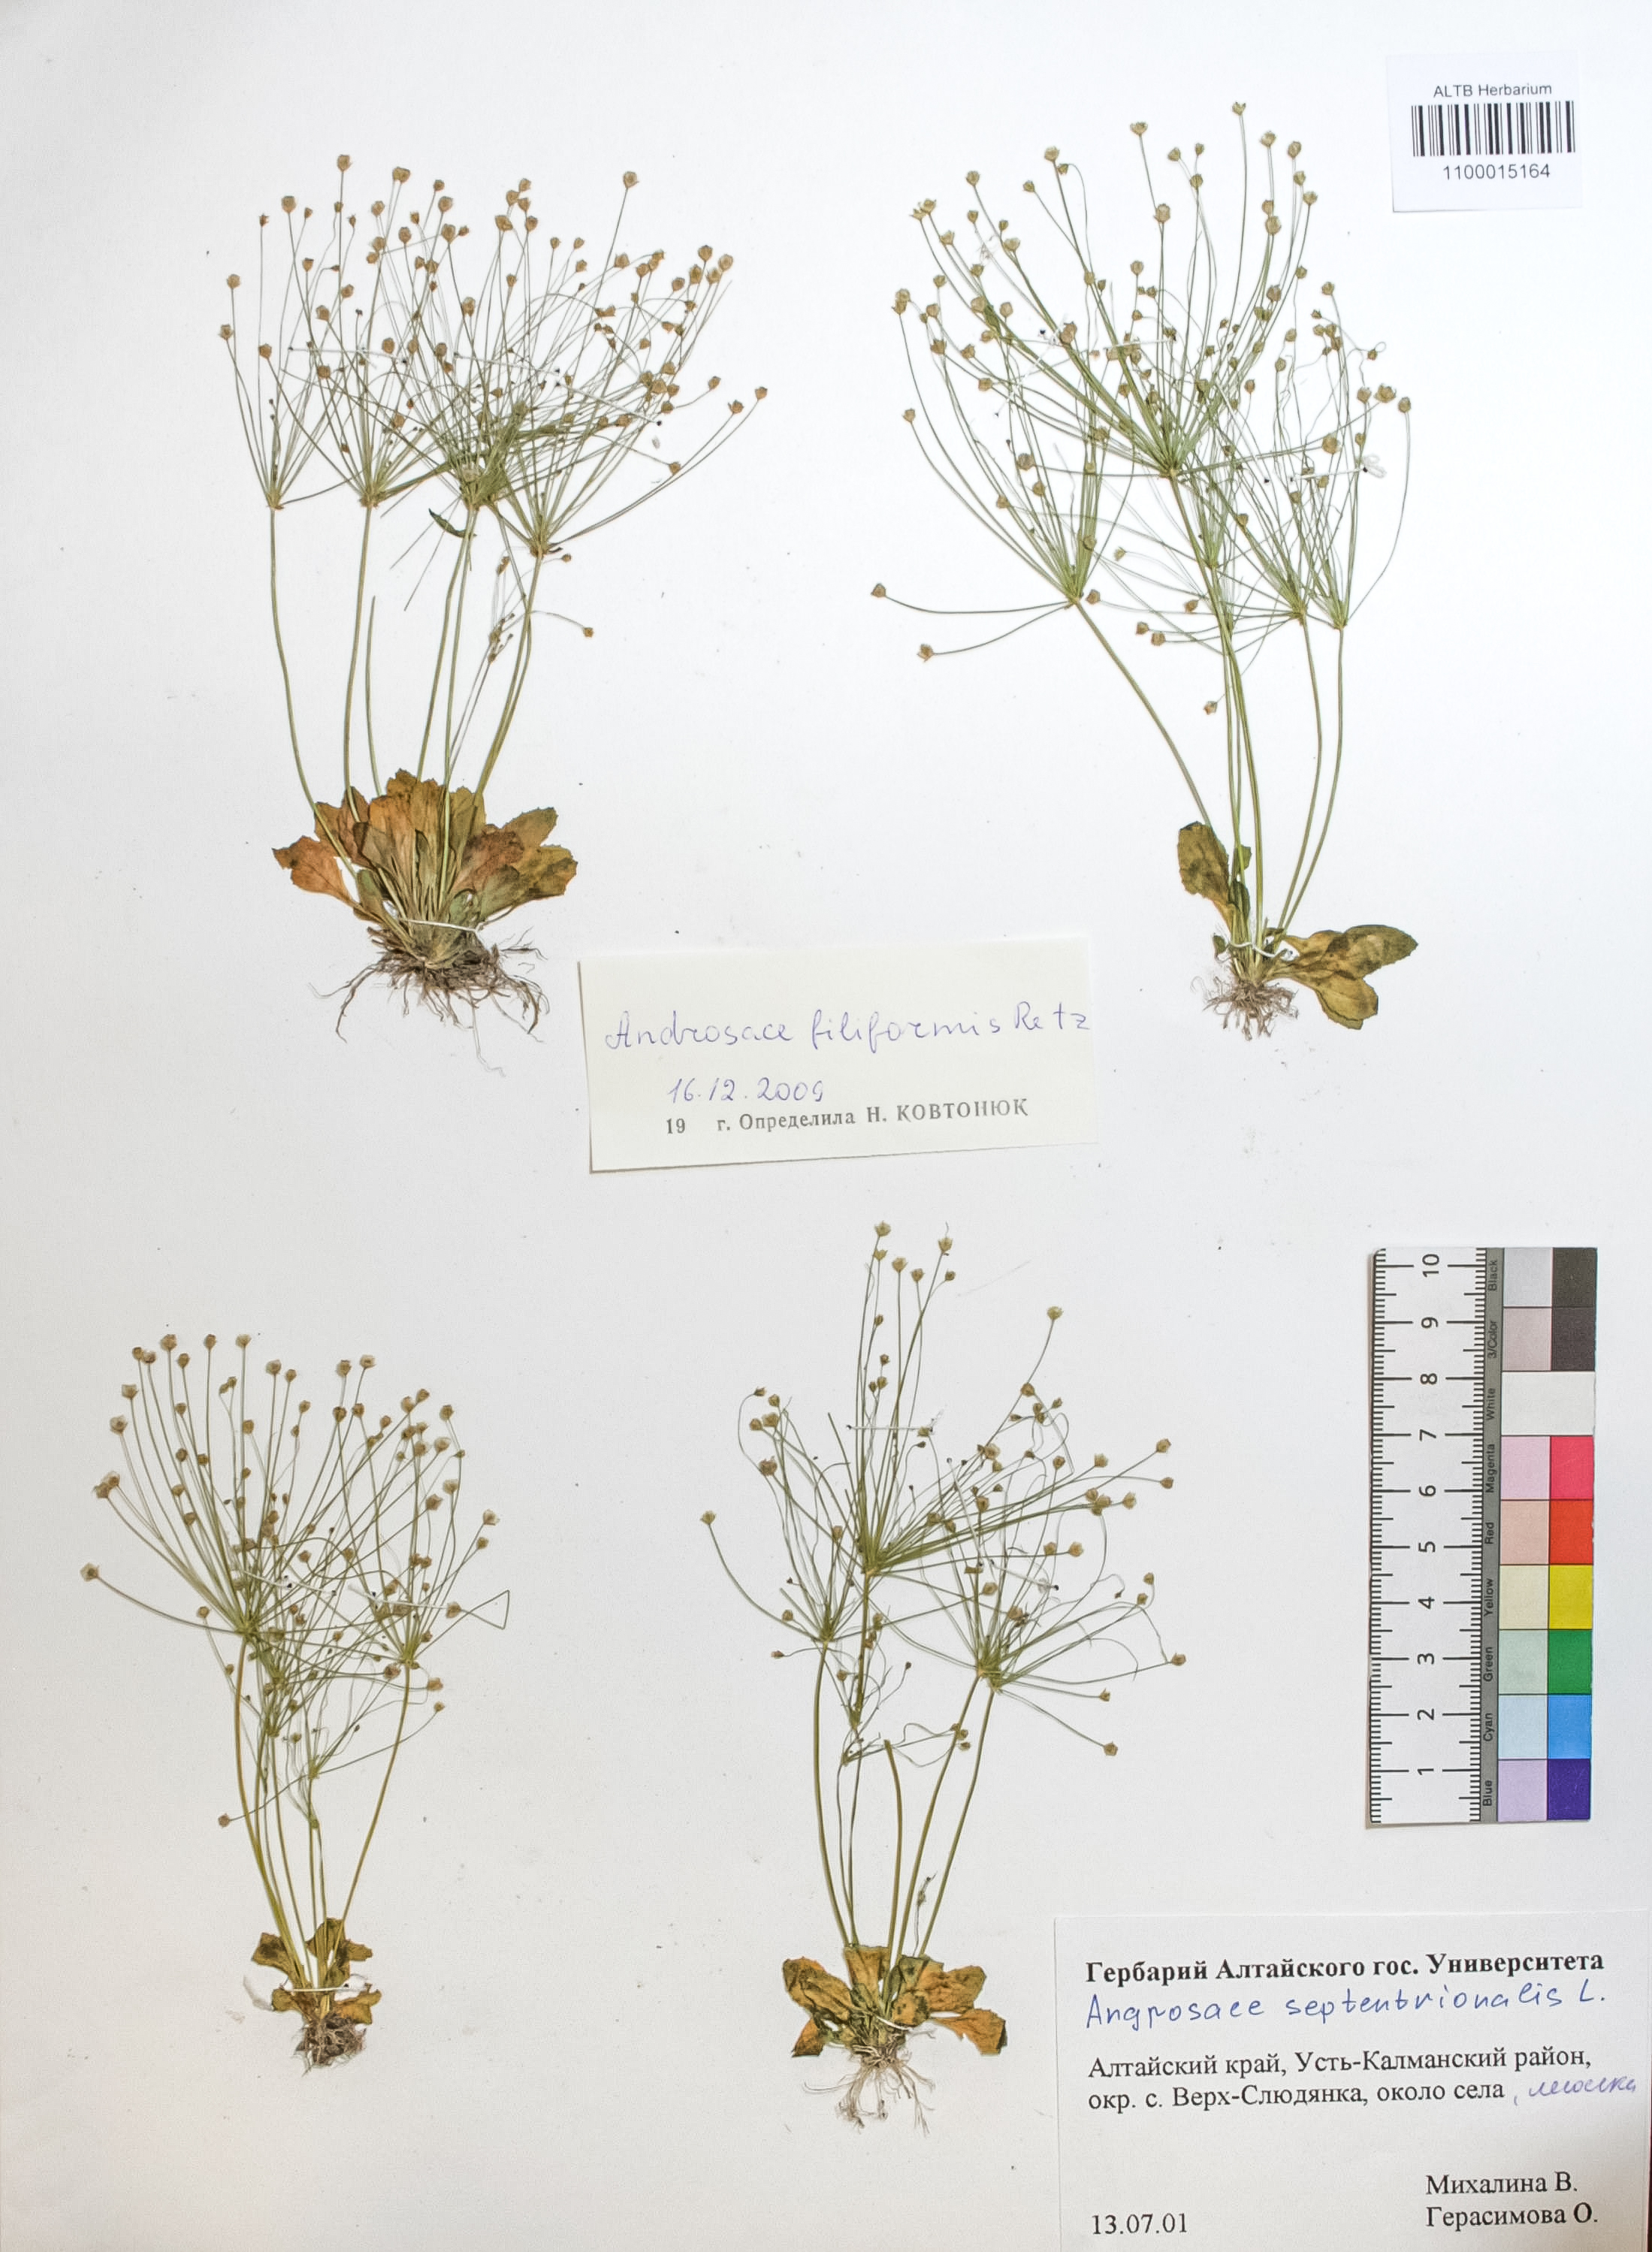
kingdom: Plantae
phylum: Tracheophyta
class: Magnoliopsida
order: Ericales
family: Primulaceae
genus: Androsace
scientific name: Androsace filiformis
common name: Filiform rock jasmine
